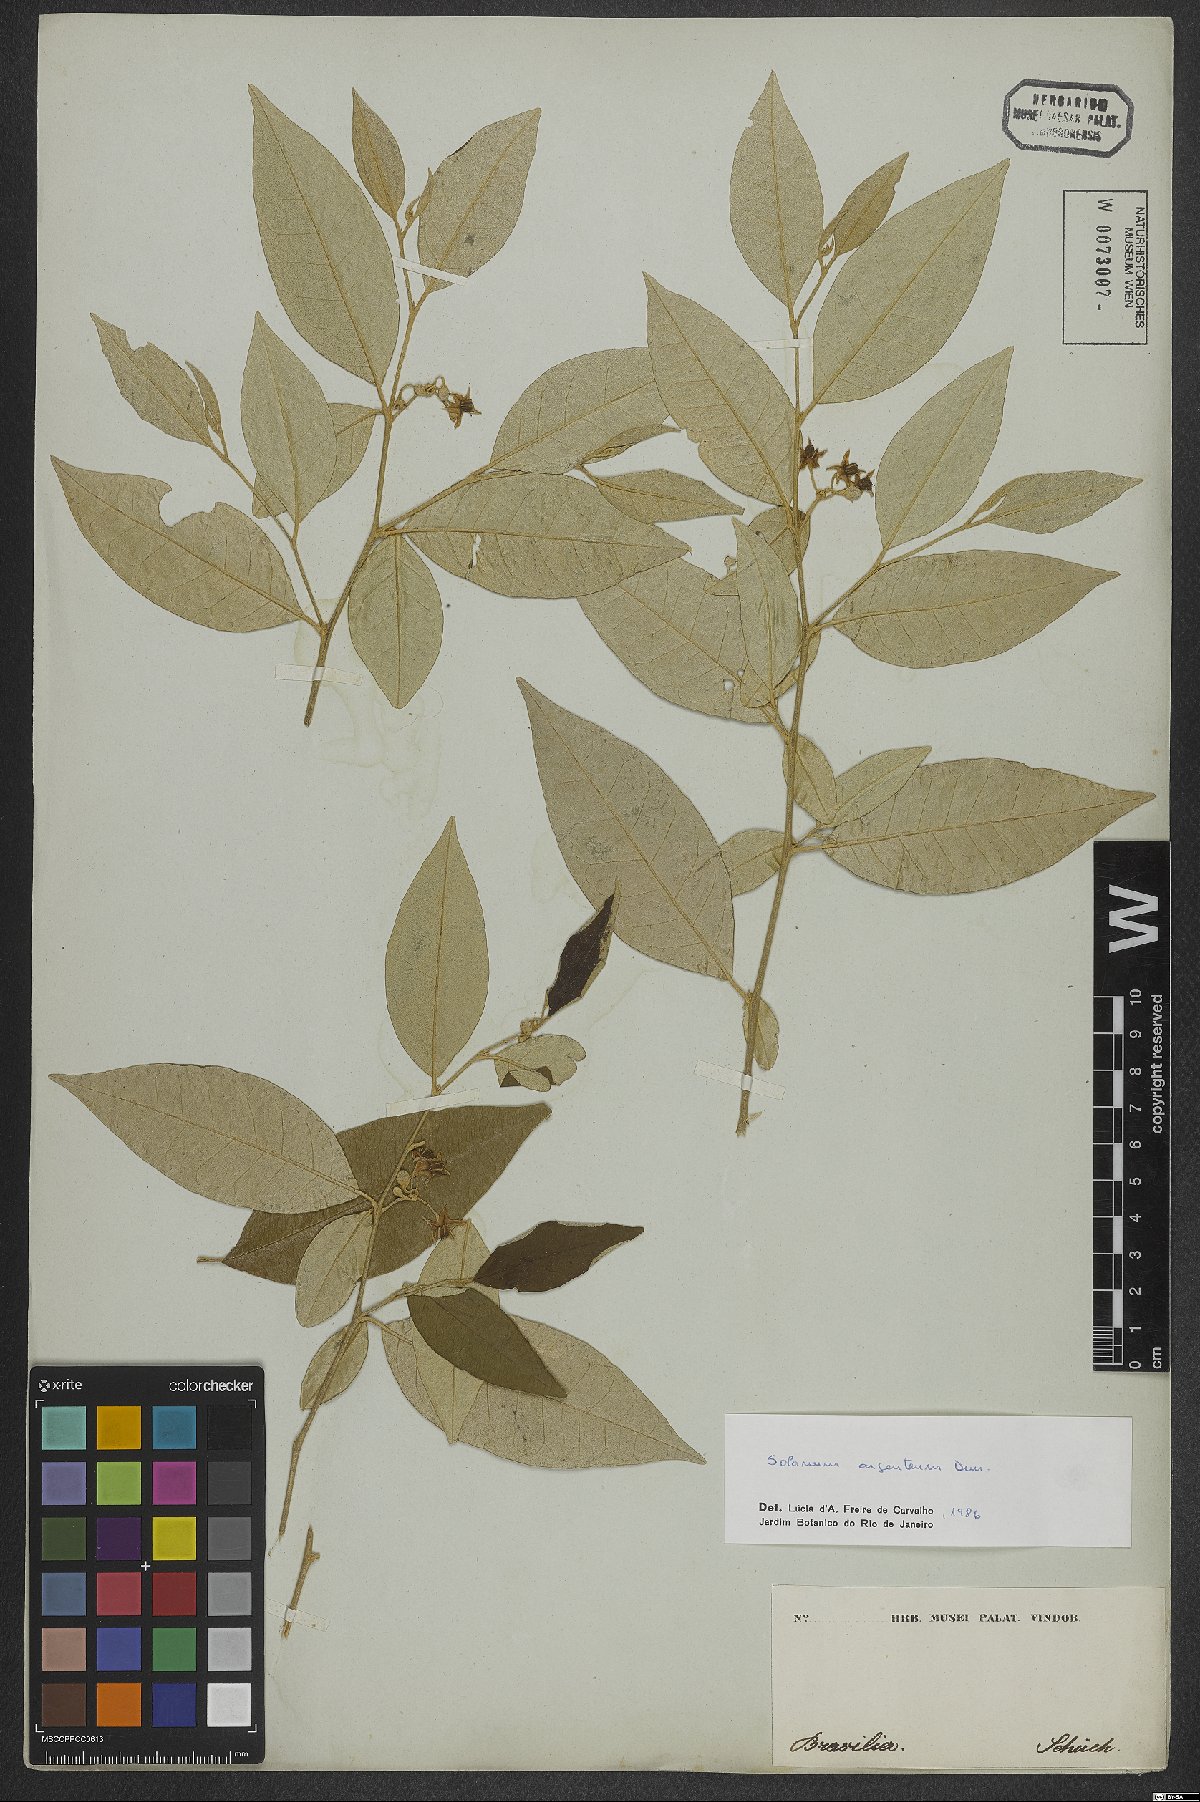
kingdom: Plantae
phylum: Tracheophyta
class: Magnoliopsida
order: Solanales
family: Solanaceae
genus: Solanum
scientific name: Solanum swartzianum
